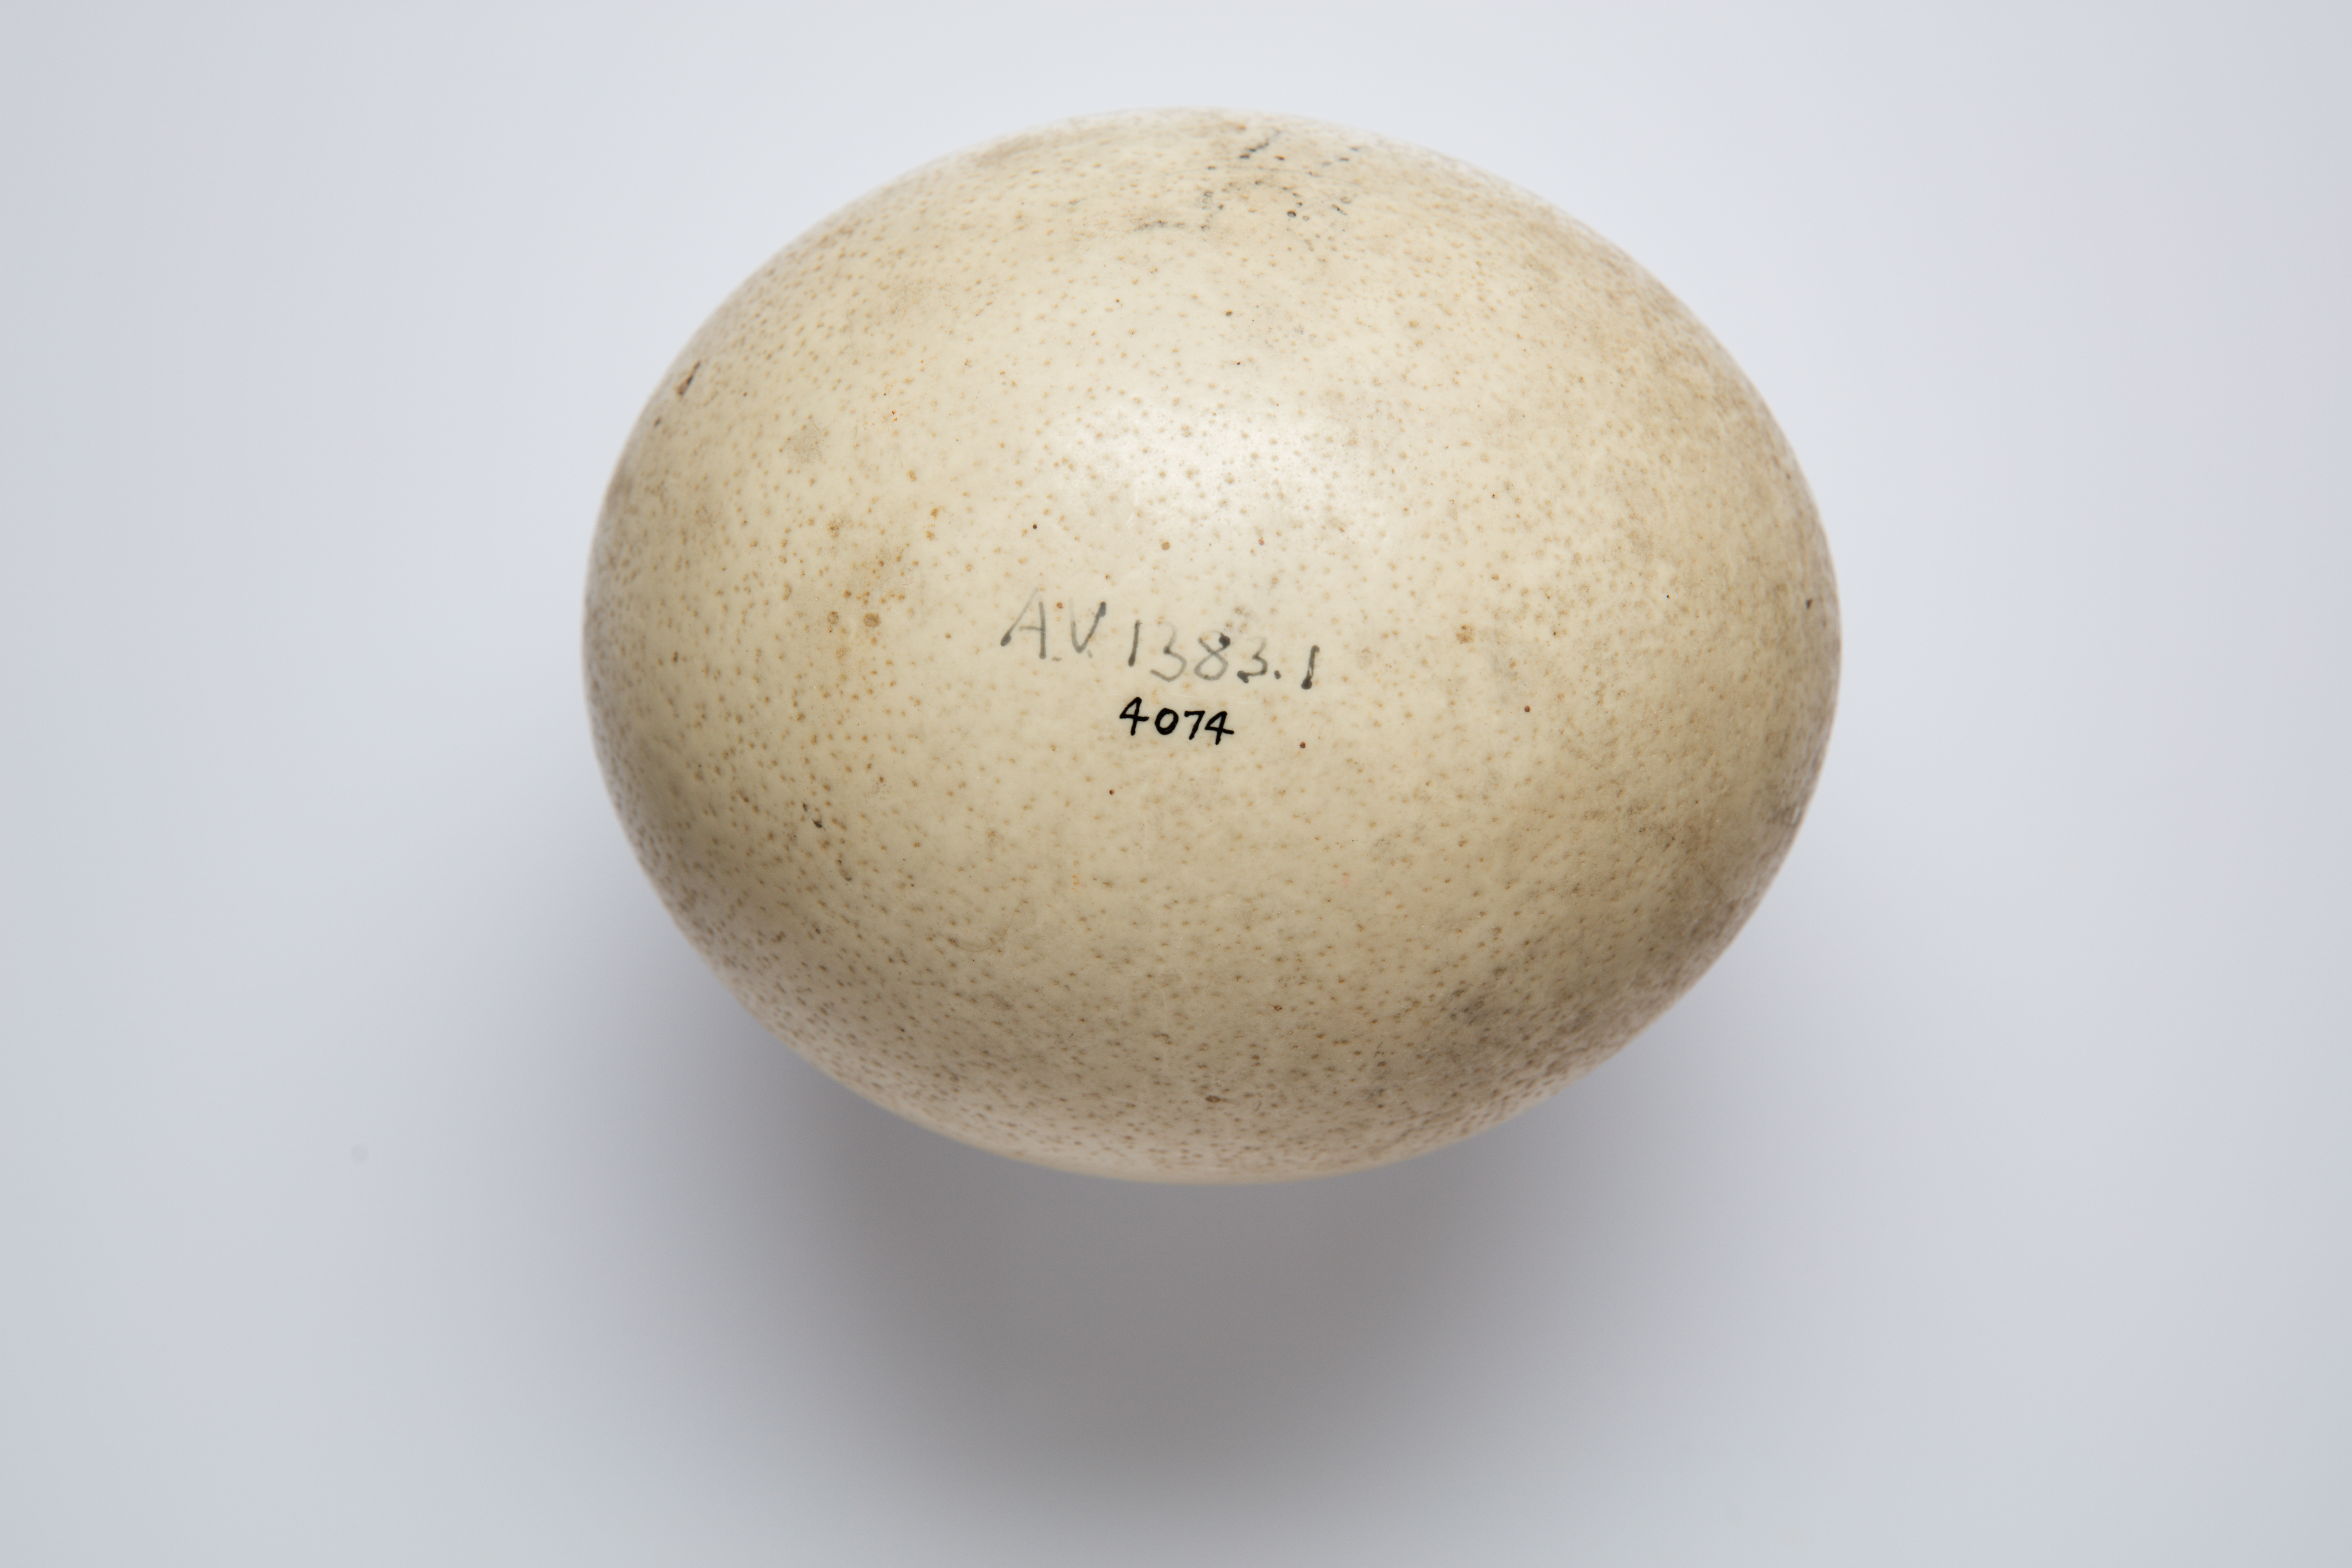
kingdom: Animalia
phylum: Chordata
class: Aves
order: Struthioniformes
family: Struthionidae
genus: Struthio
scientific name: Struthio camelus
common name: Common ostrich
